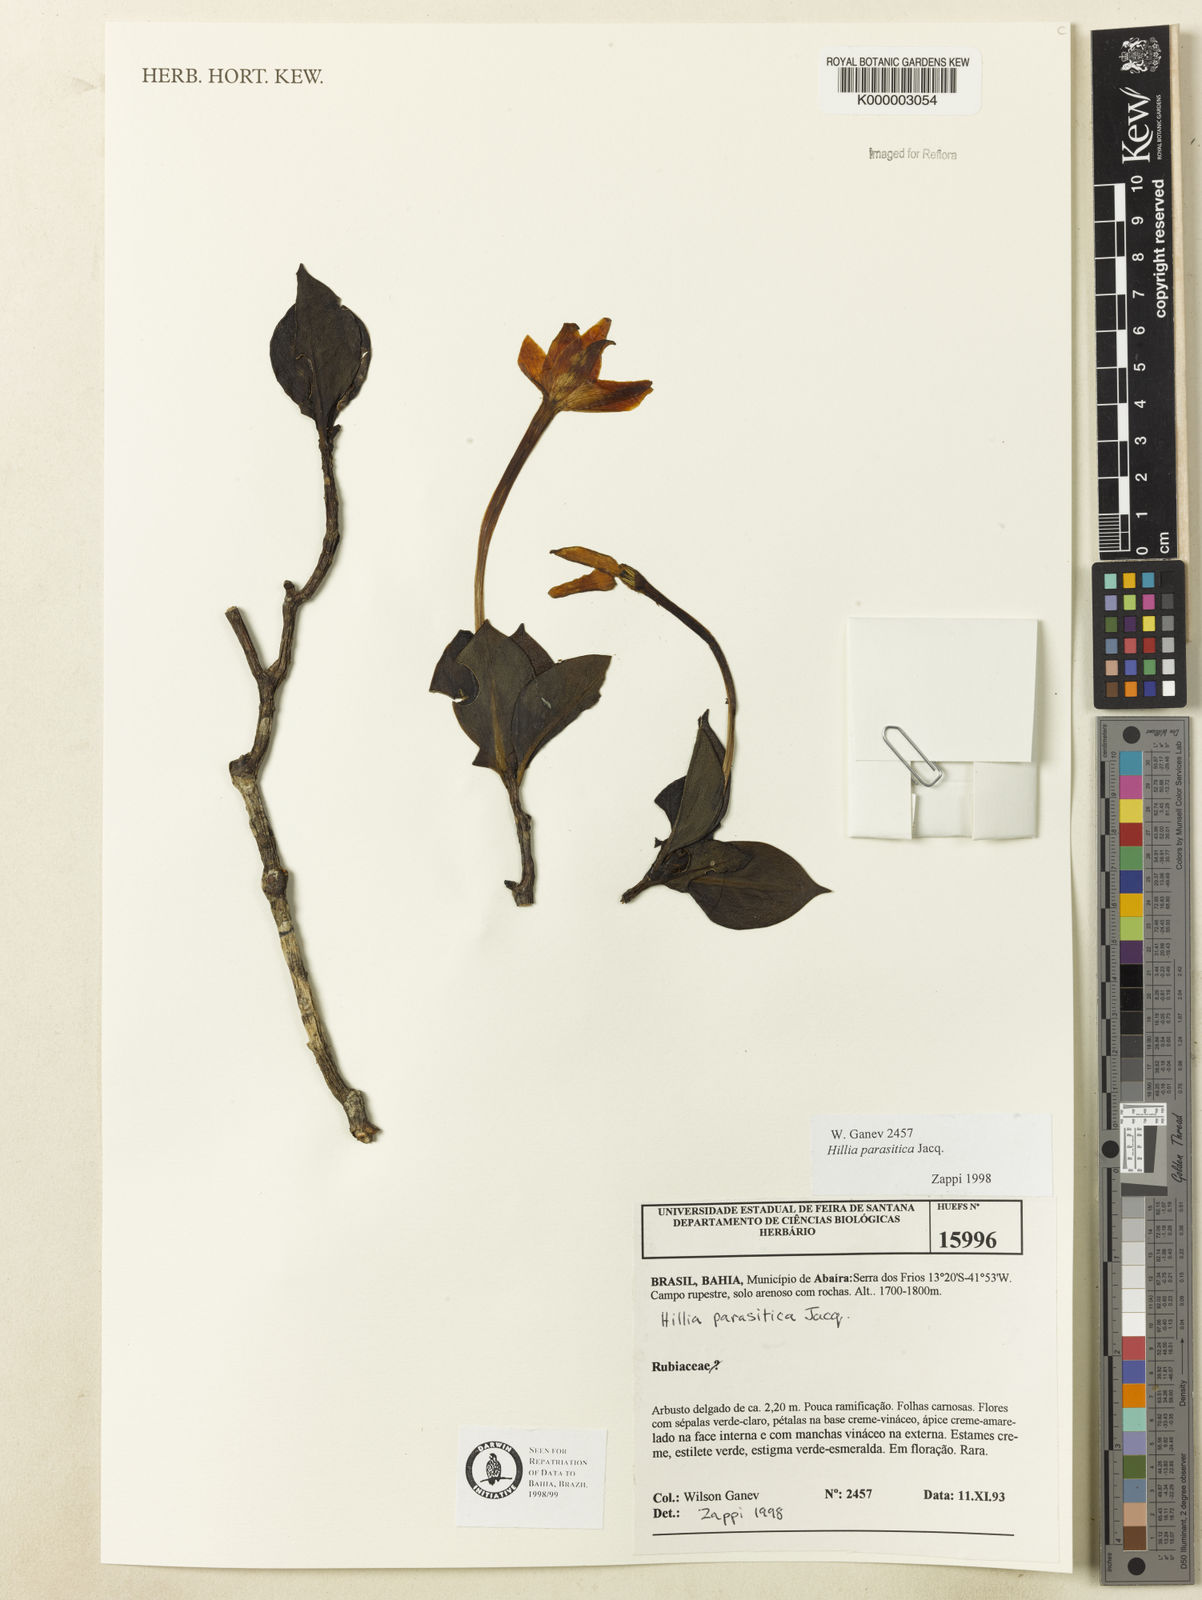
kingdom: Plantae
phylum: Tracheophyta
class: Magnoliopsida
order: Gentianales
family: Rubiaceae
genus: Hillia
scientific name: Hillia parasitica
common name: Morning star
